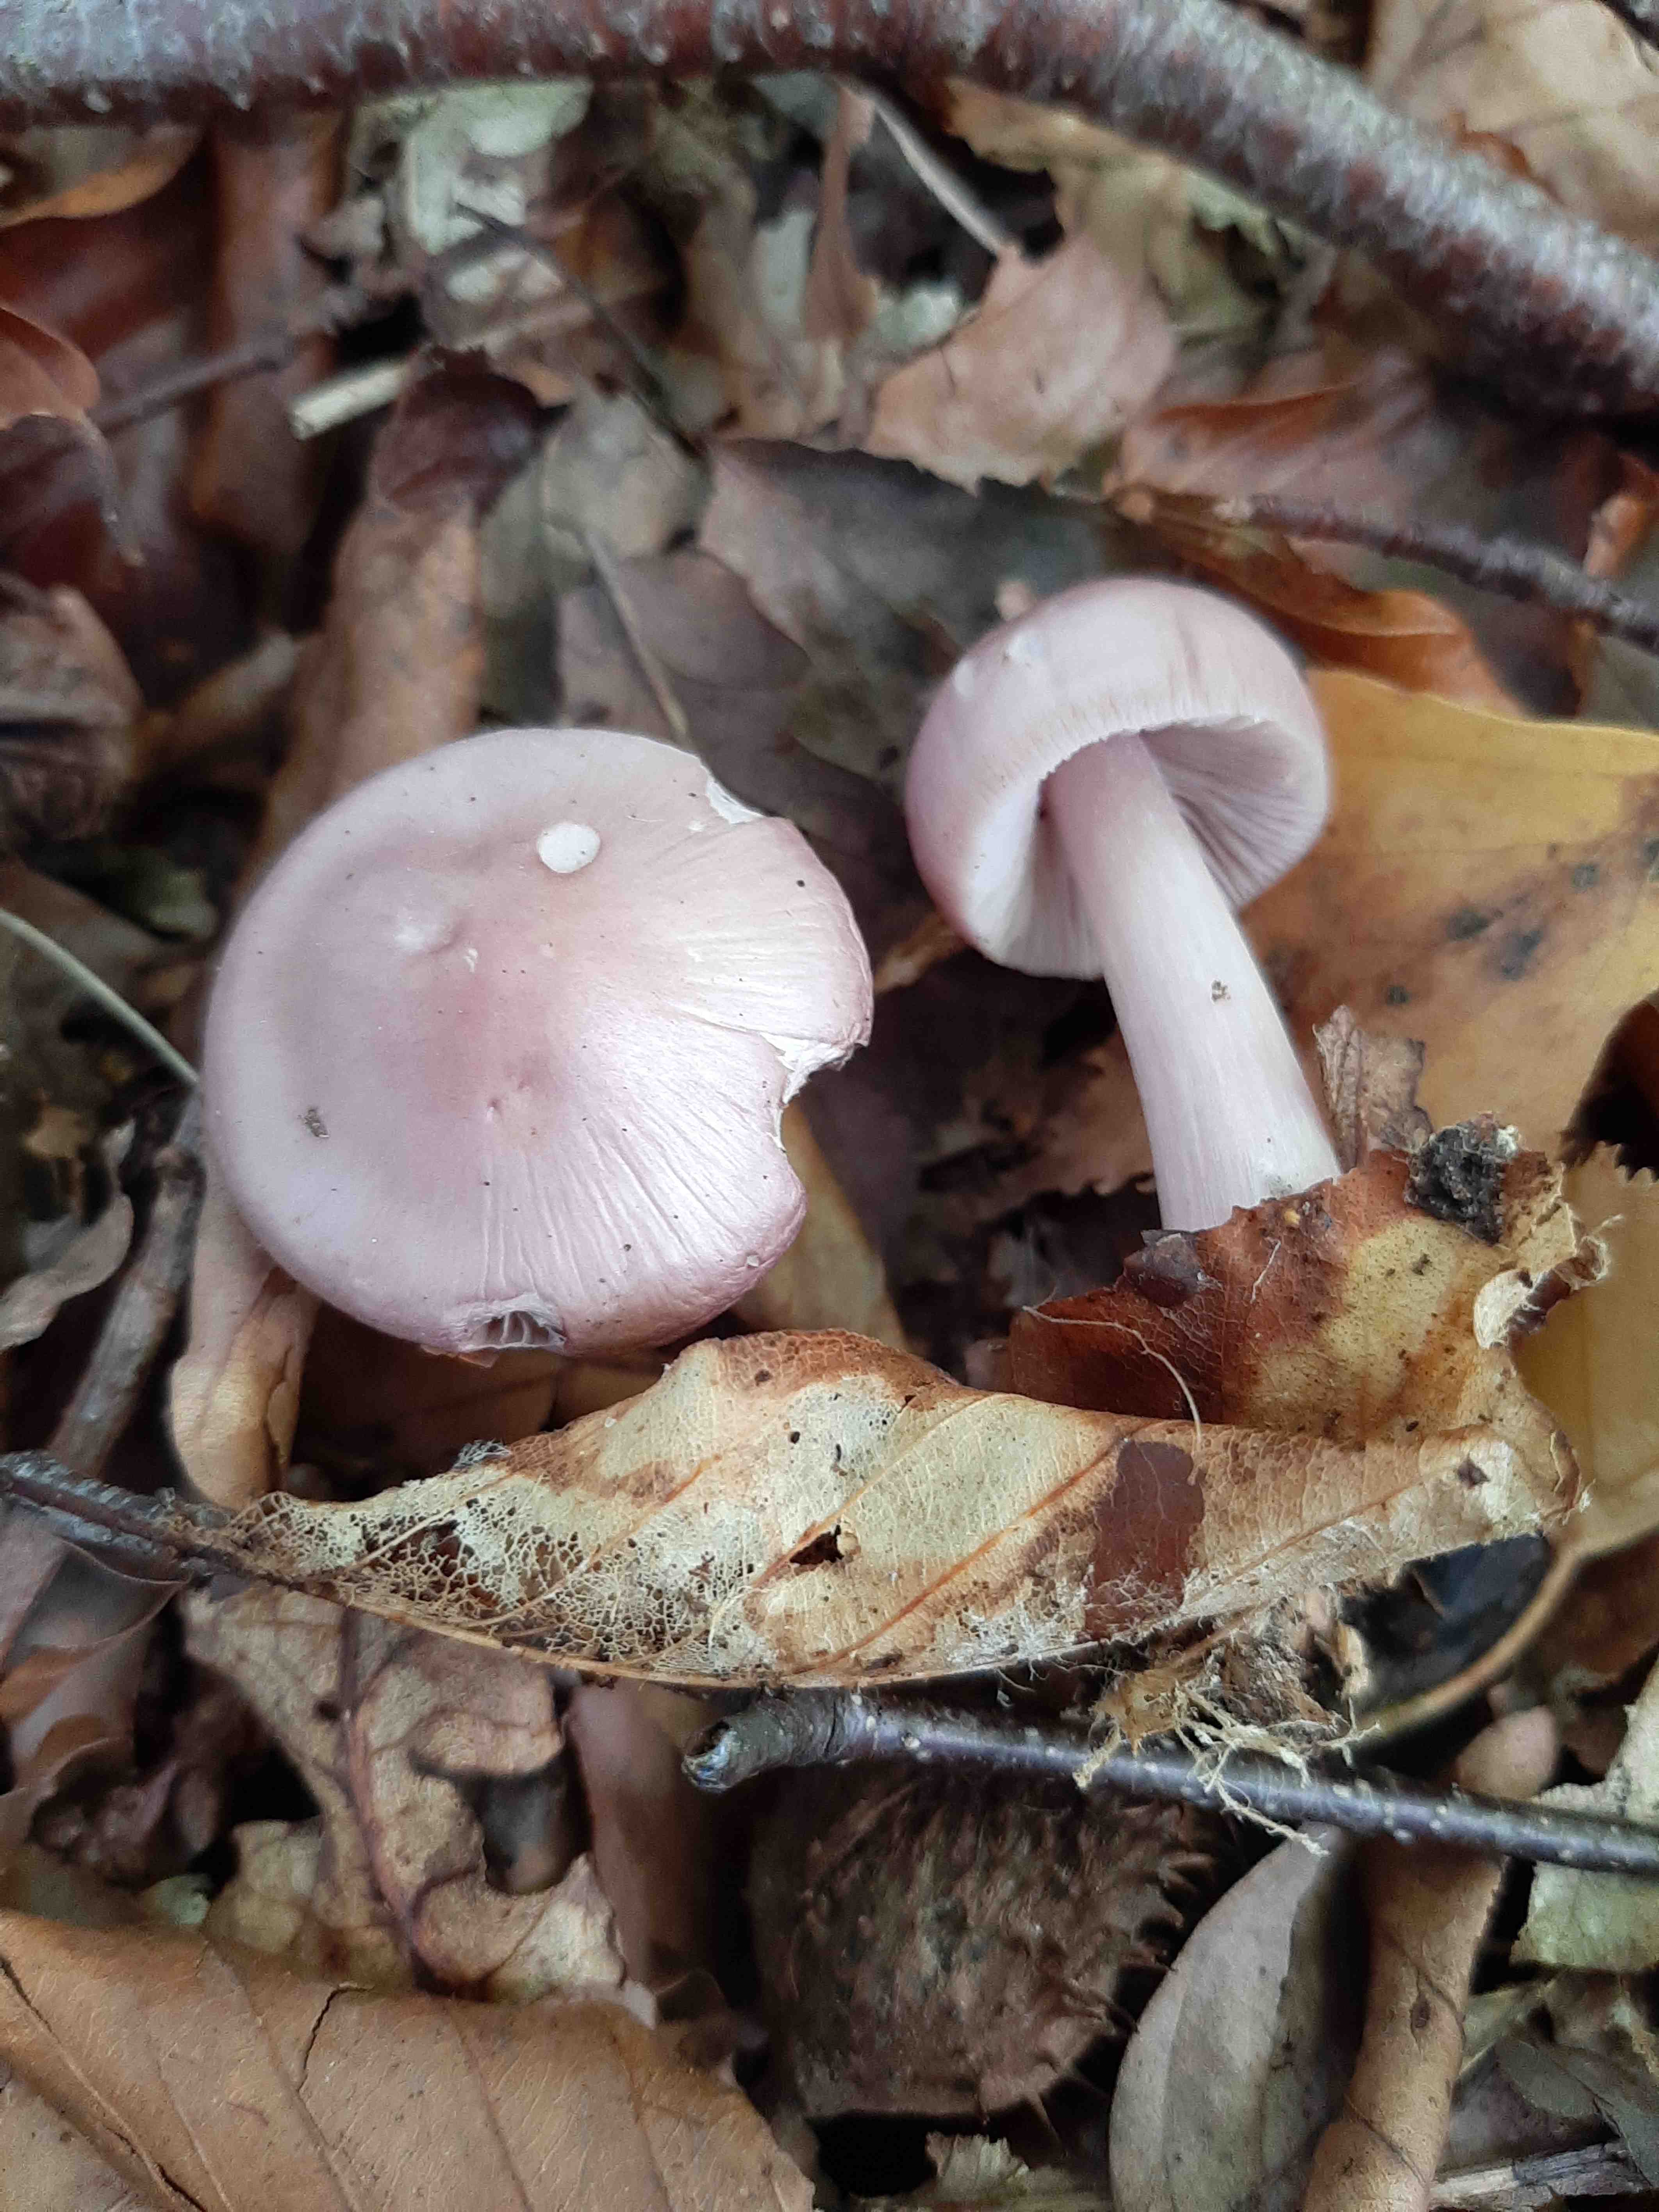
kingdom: Fungi
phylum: Basidiomycota
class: Agaricomycetes
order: Agaricales
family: Mycenaceae
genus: Mycena
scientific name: Mycena rosea
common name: rosa huesvamp
